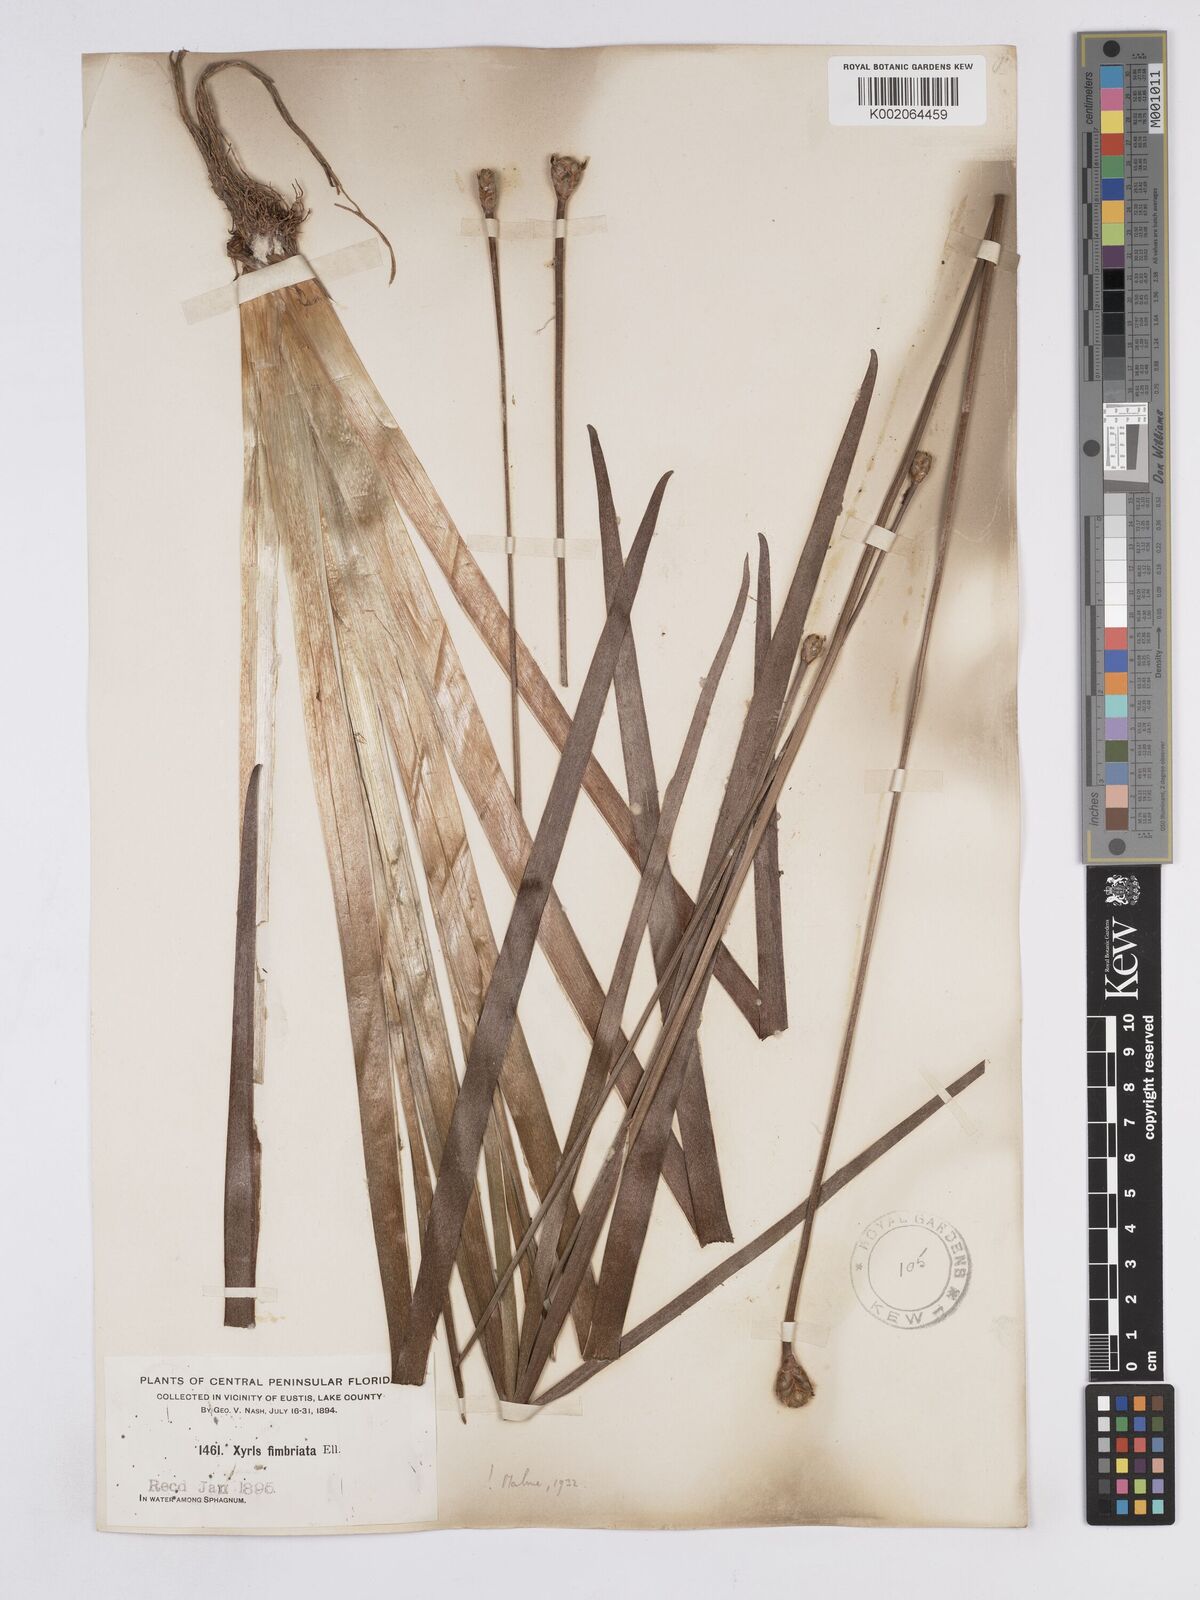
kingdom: Plantae
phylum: Tracheophyta
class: Liliopsida
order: Poales
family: Xyridaceae
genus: Xyris
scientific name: Xyris fimbriata
